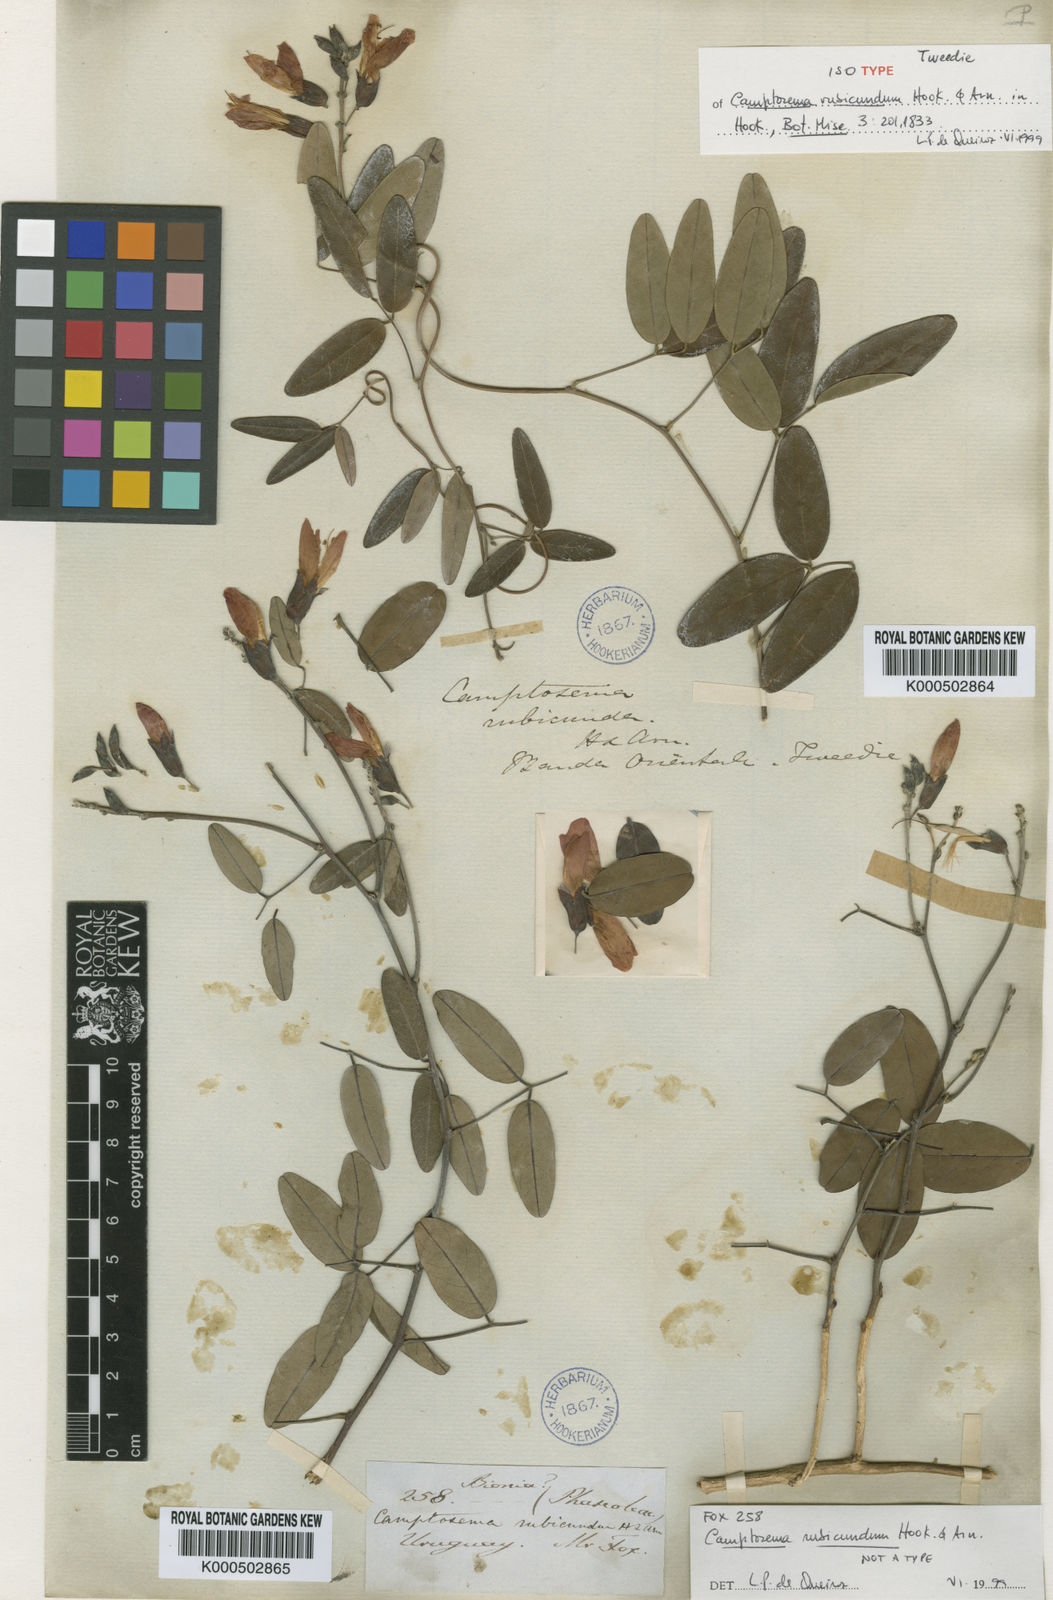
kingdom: Plantae
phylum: Tracheophyta
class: Magnoliopsida
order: Fabales
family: Fabaceae
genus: Camptosema
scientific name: Camptosema rubicundum
